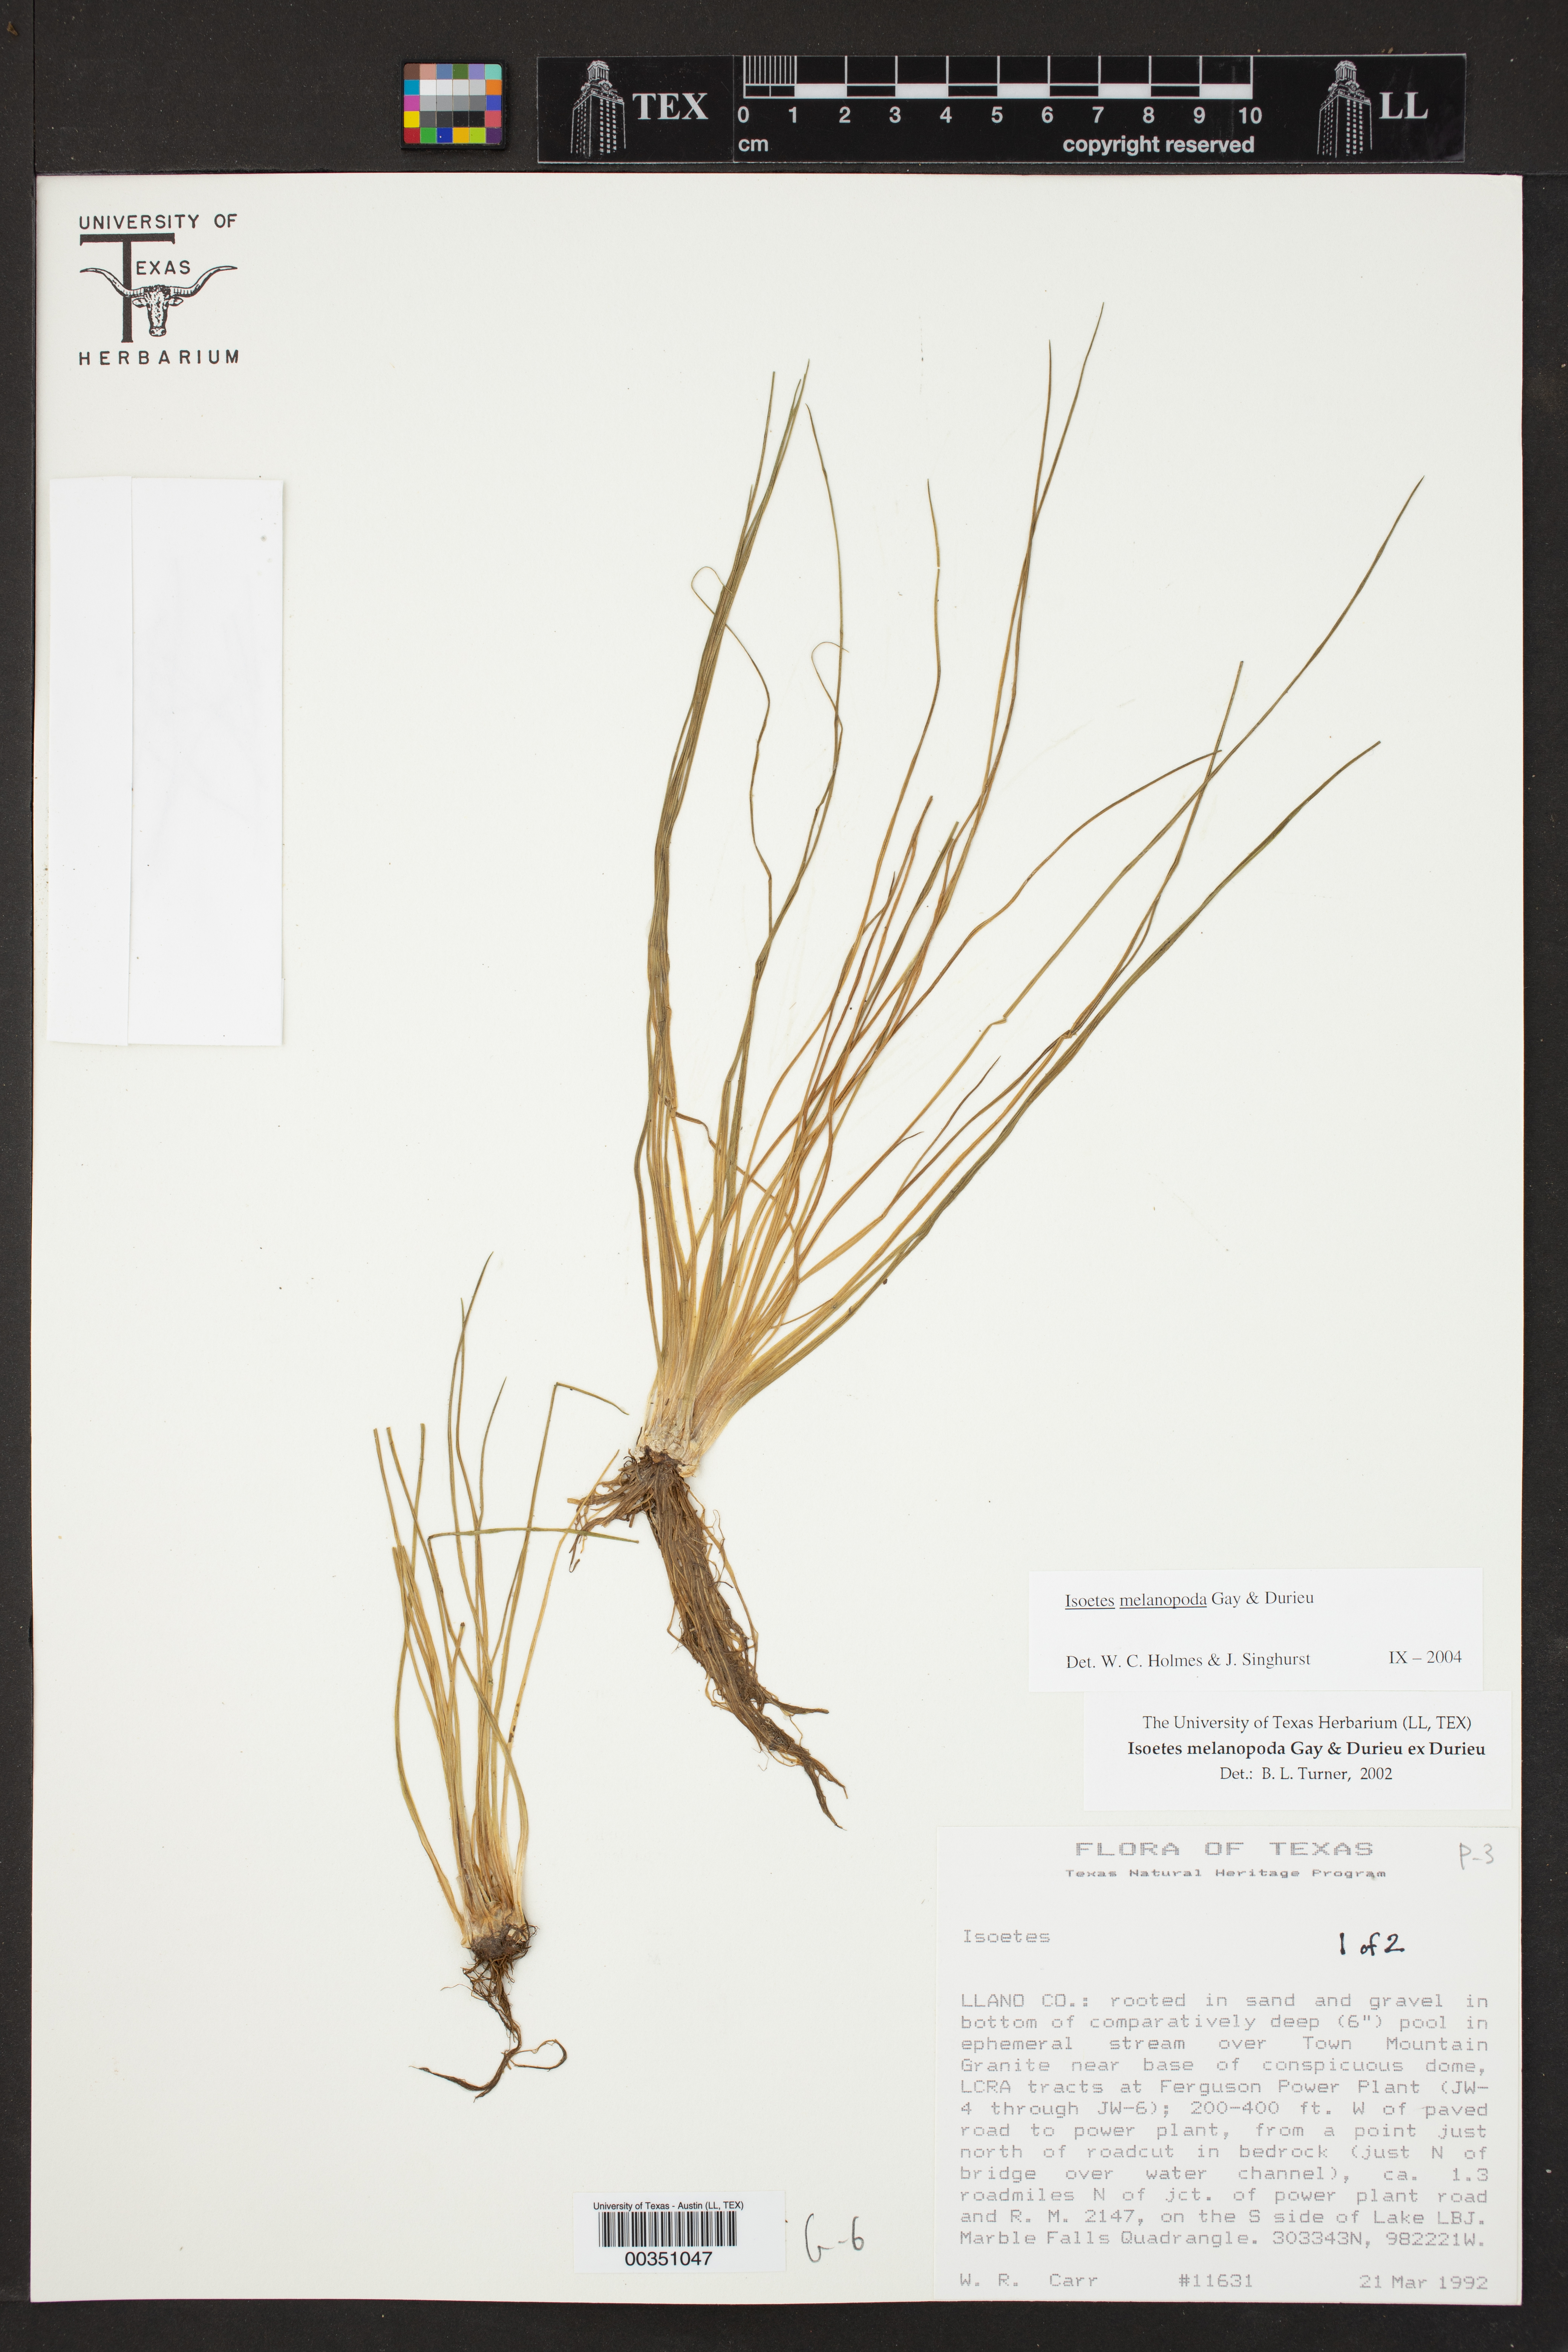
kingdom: Plantae
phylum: Tracheophyta
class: Lycopodiopsida
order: Isoetales
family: Isoetaceae
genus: Isoetes
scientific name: Isoetes melanopoda
